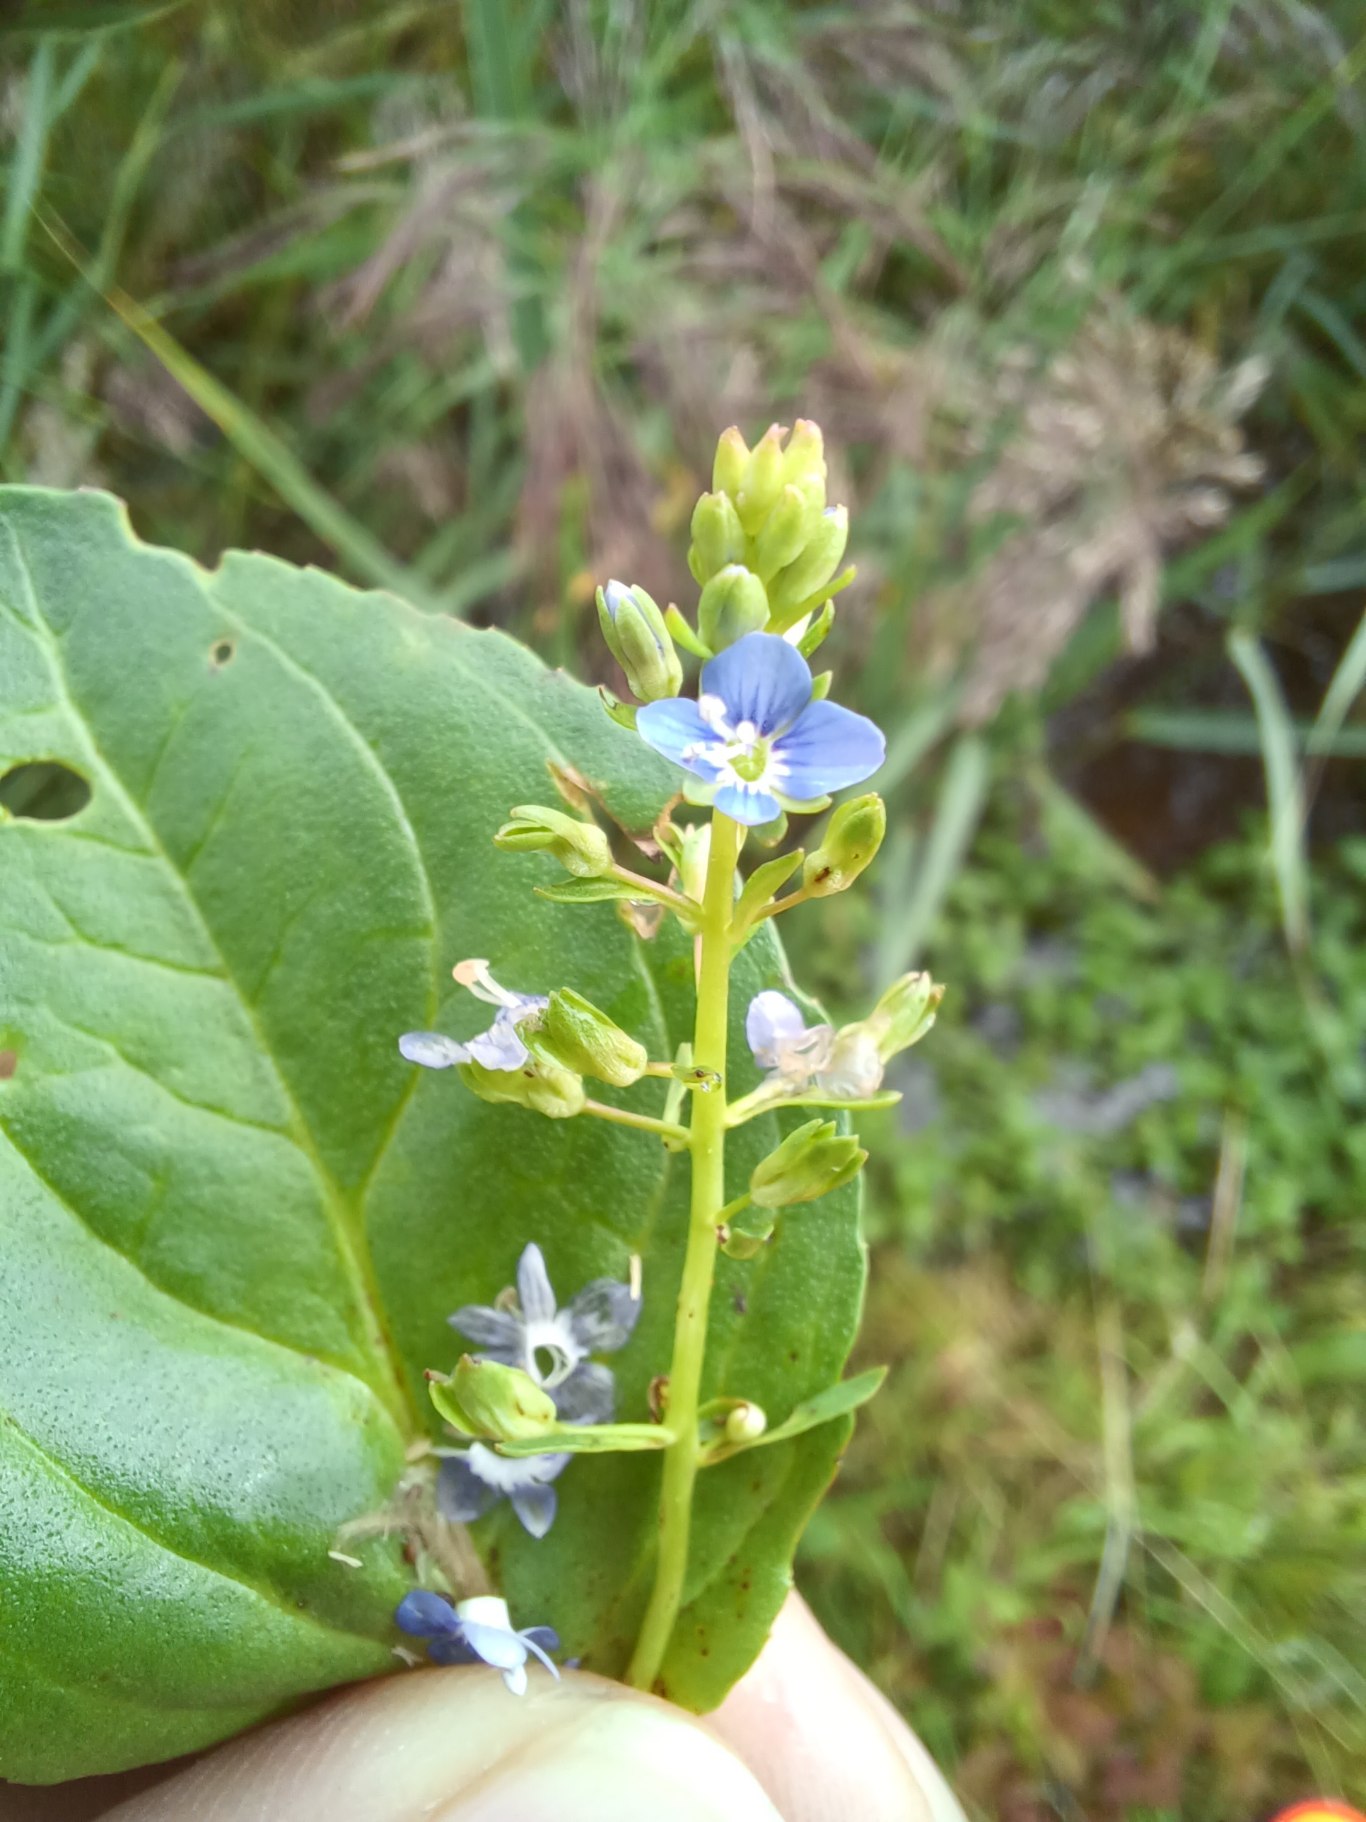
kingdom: Plantae
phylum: Tracheophyta
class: Magnoliopsida
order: Lamiales
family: Plantaginaceae
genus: Veronica
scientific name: Veronica beccabunga
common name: Tykbladet ærenpris
